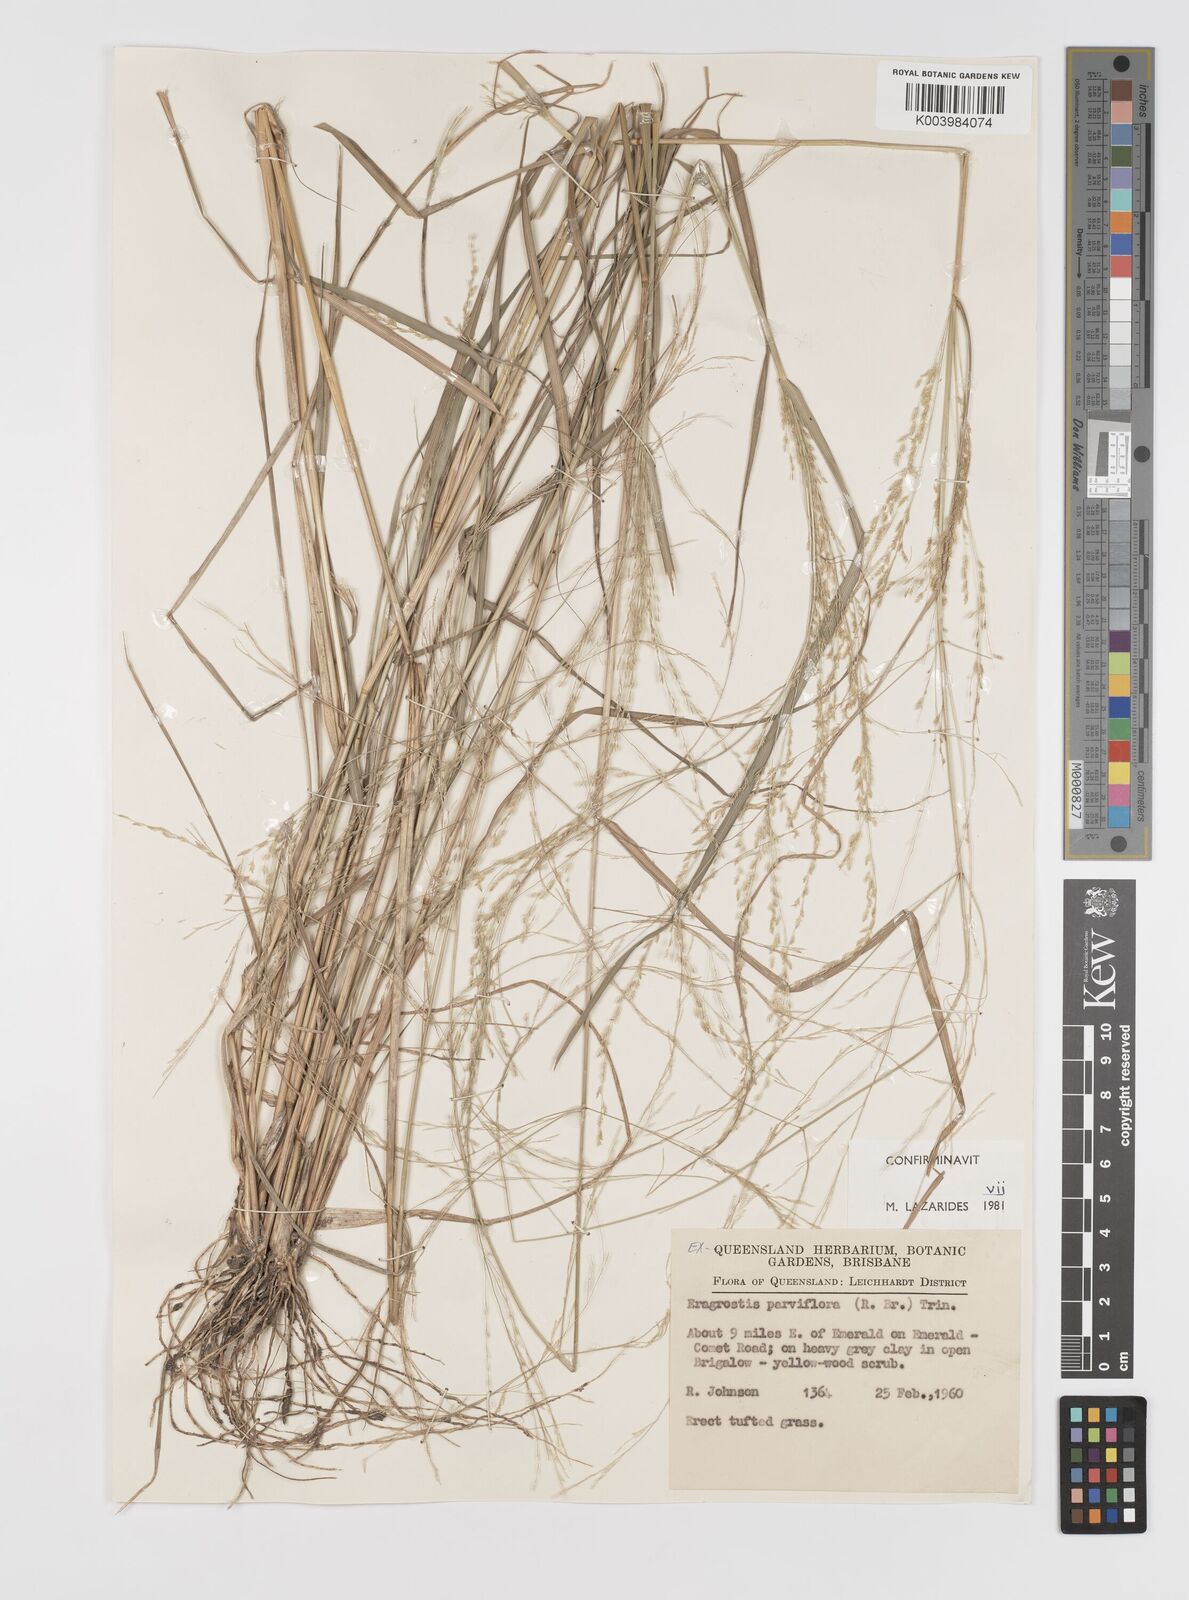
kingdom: Plantae
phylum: Tracheophyta
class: Liliopsida
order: Poales
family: Poaceae
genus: Eragrostis
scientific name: Eragrostis parviflora
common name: Weeping love-grass
